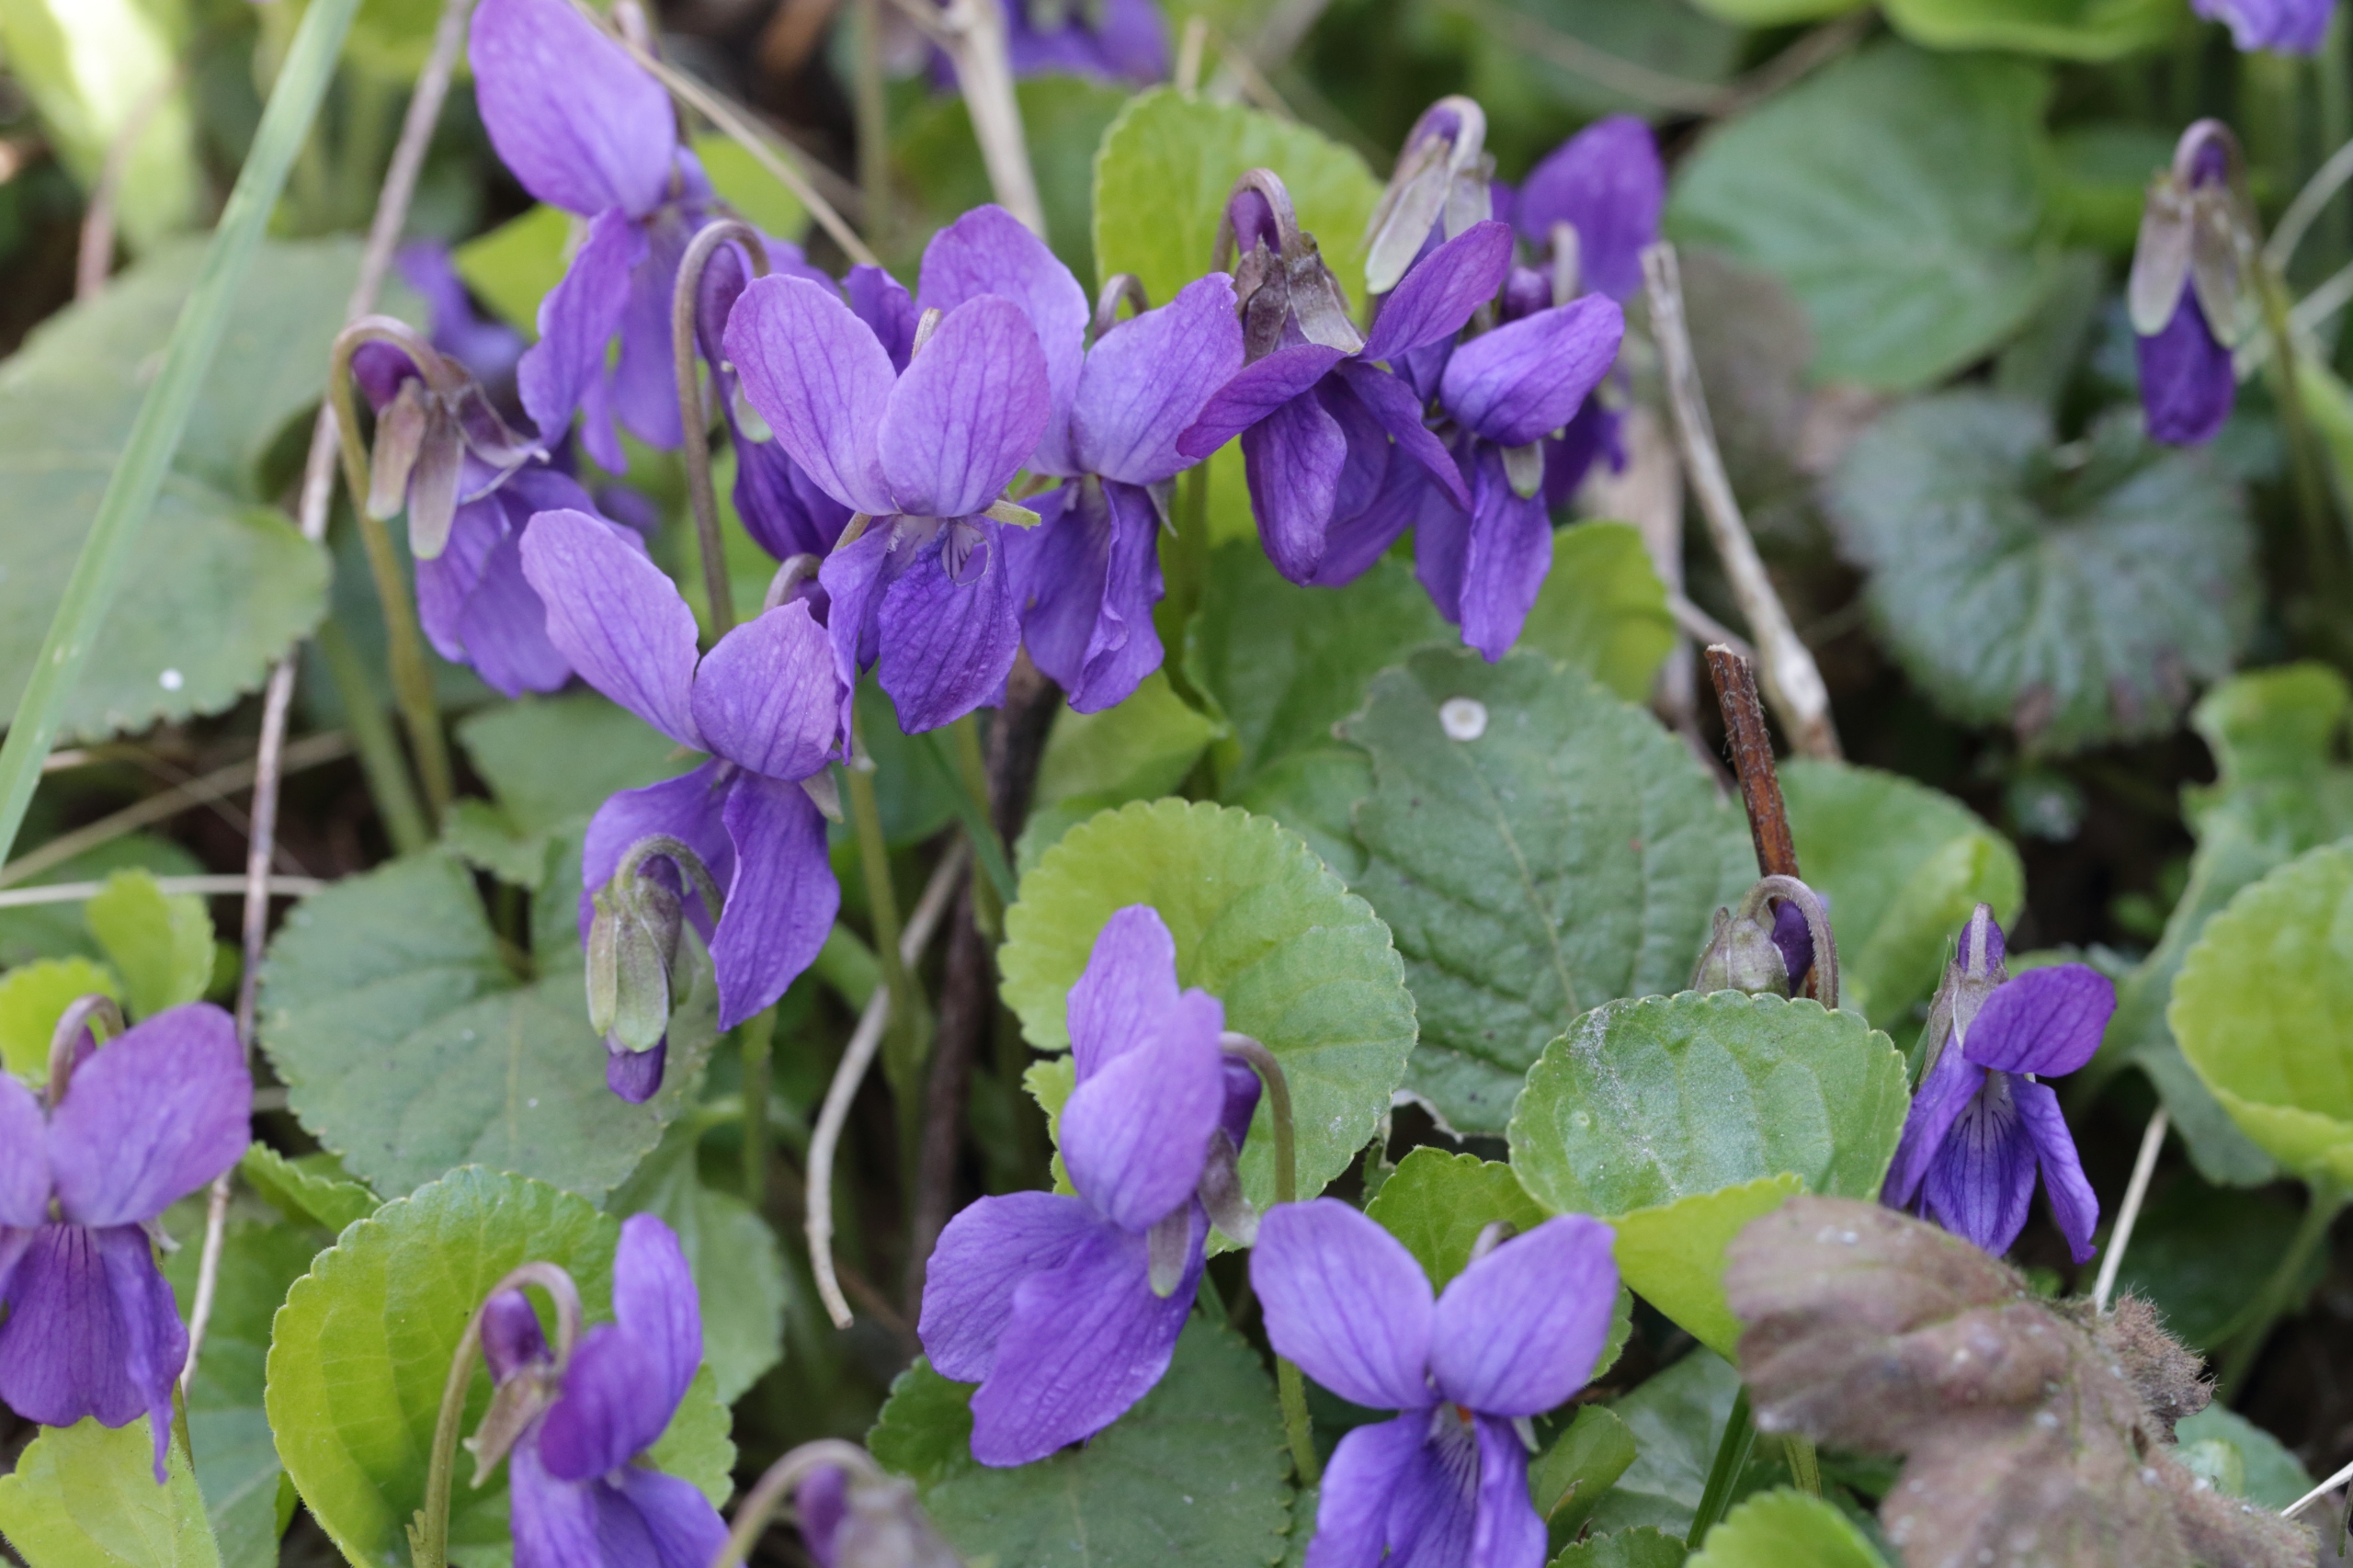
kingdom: Plantae
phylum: Tracheophyta
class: Magnoliopsida
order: Malpighiales
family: Violaceae
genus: Viola
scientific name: Viola odorata
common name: Marts-viol
